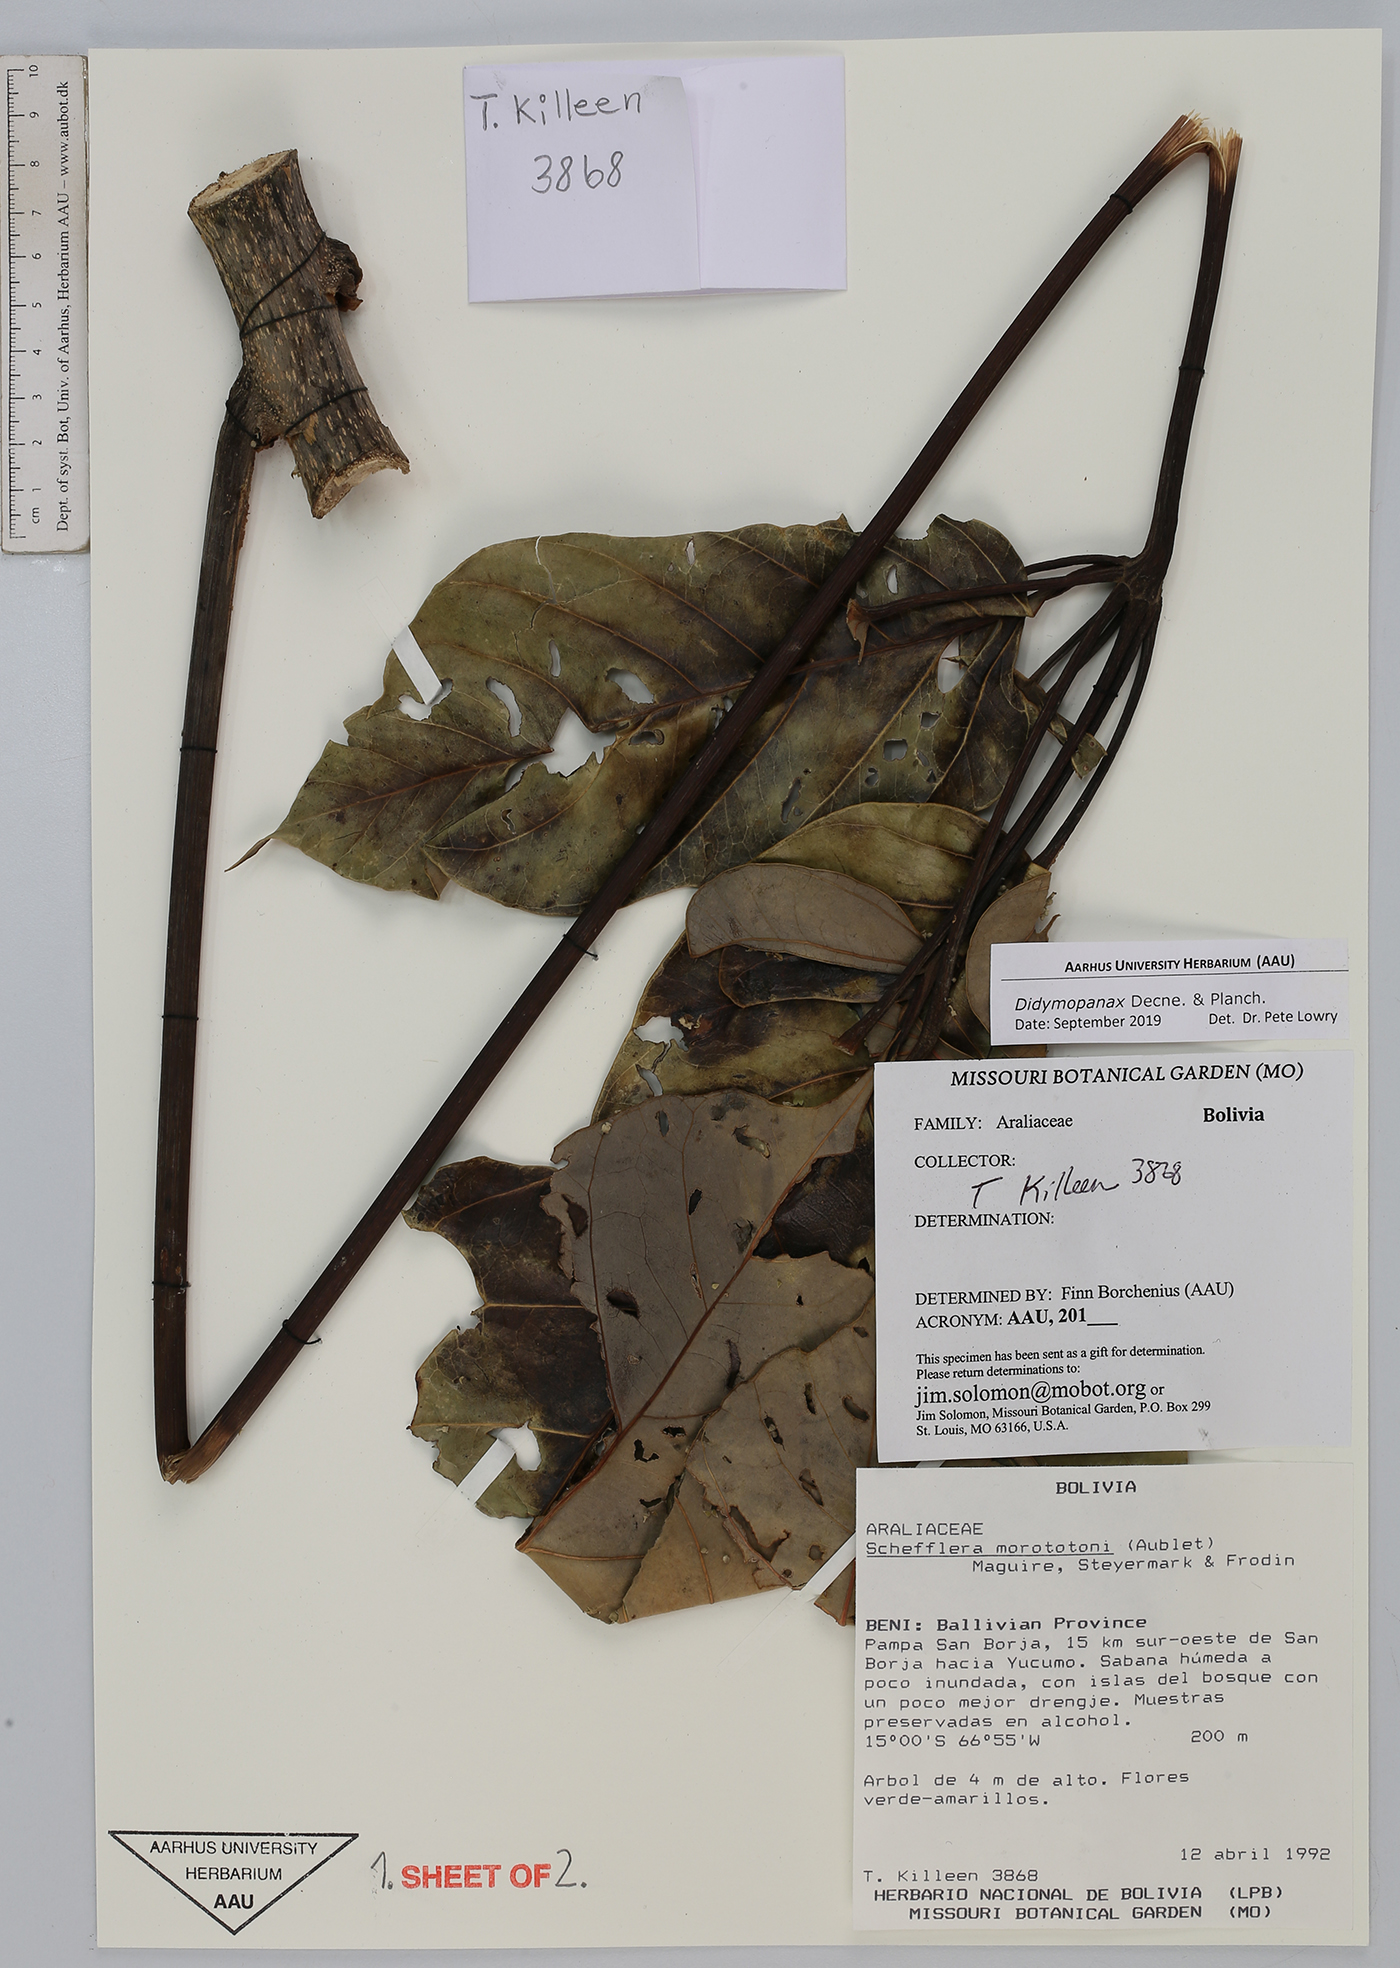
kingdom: Plantae
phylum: Tracheophyta
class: Magnoliopsida
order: Apiales
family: Araliaceae
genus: Didymopanax
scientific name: Didymopanax
